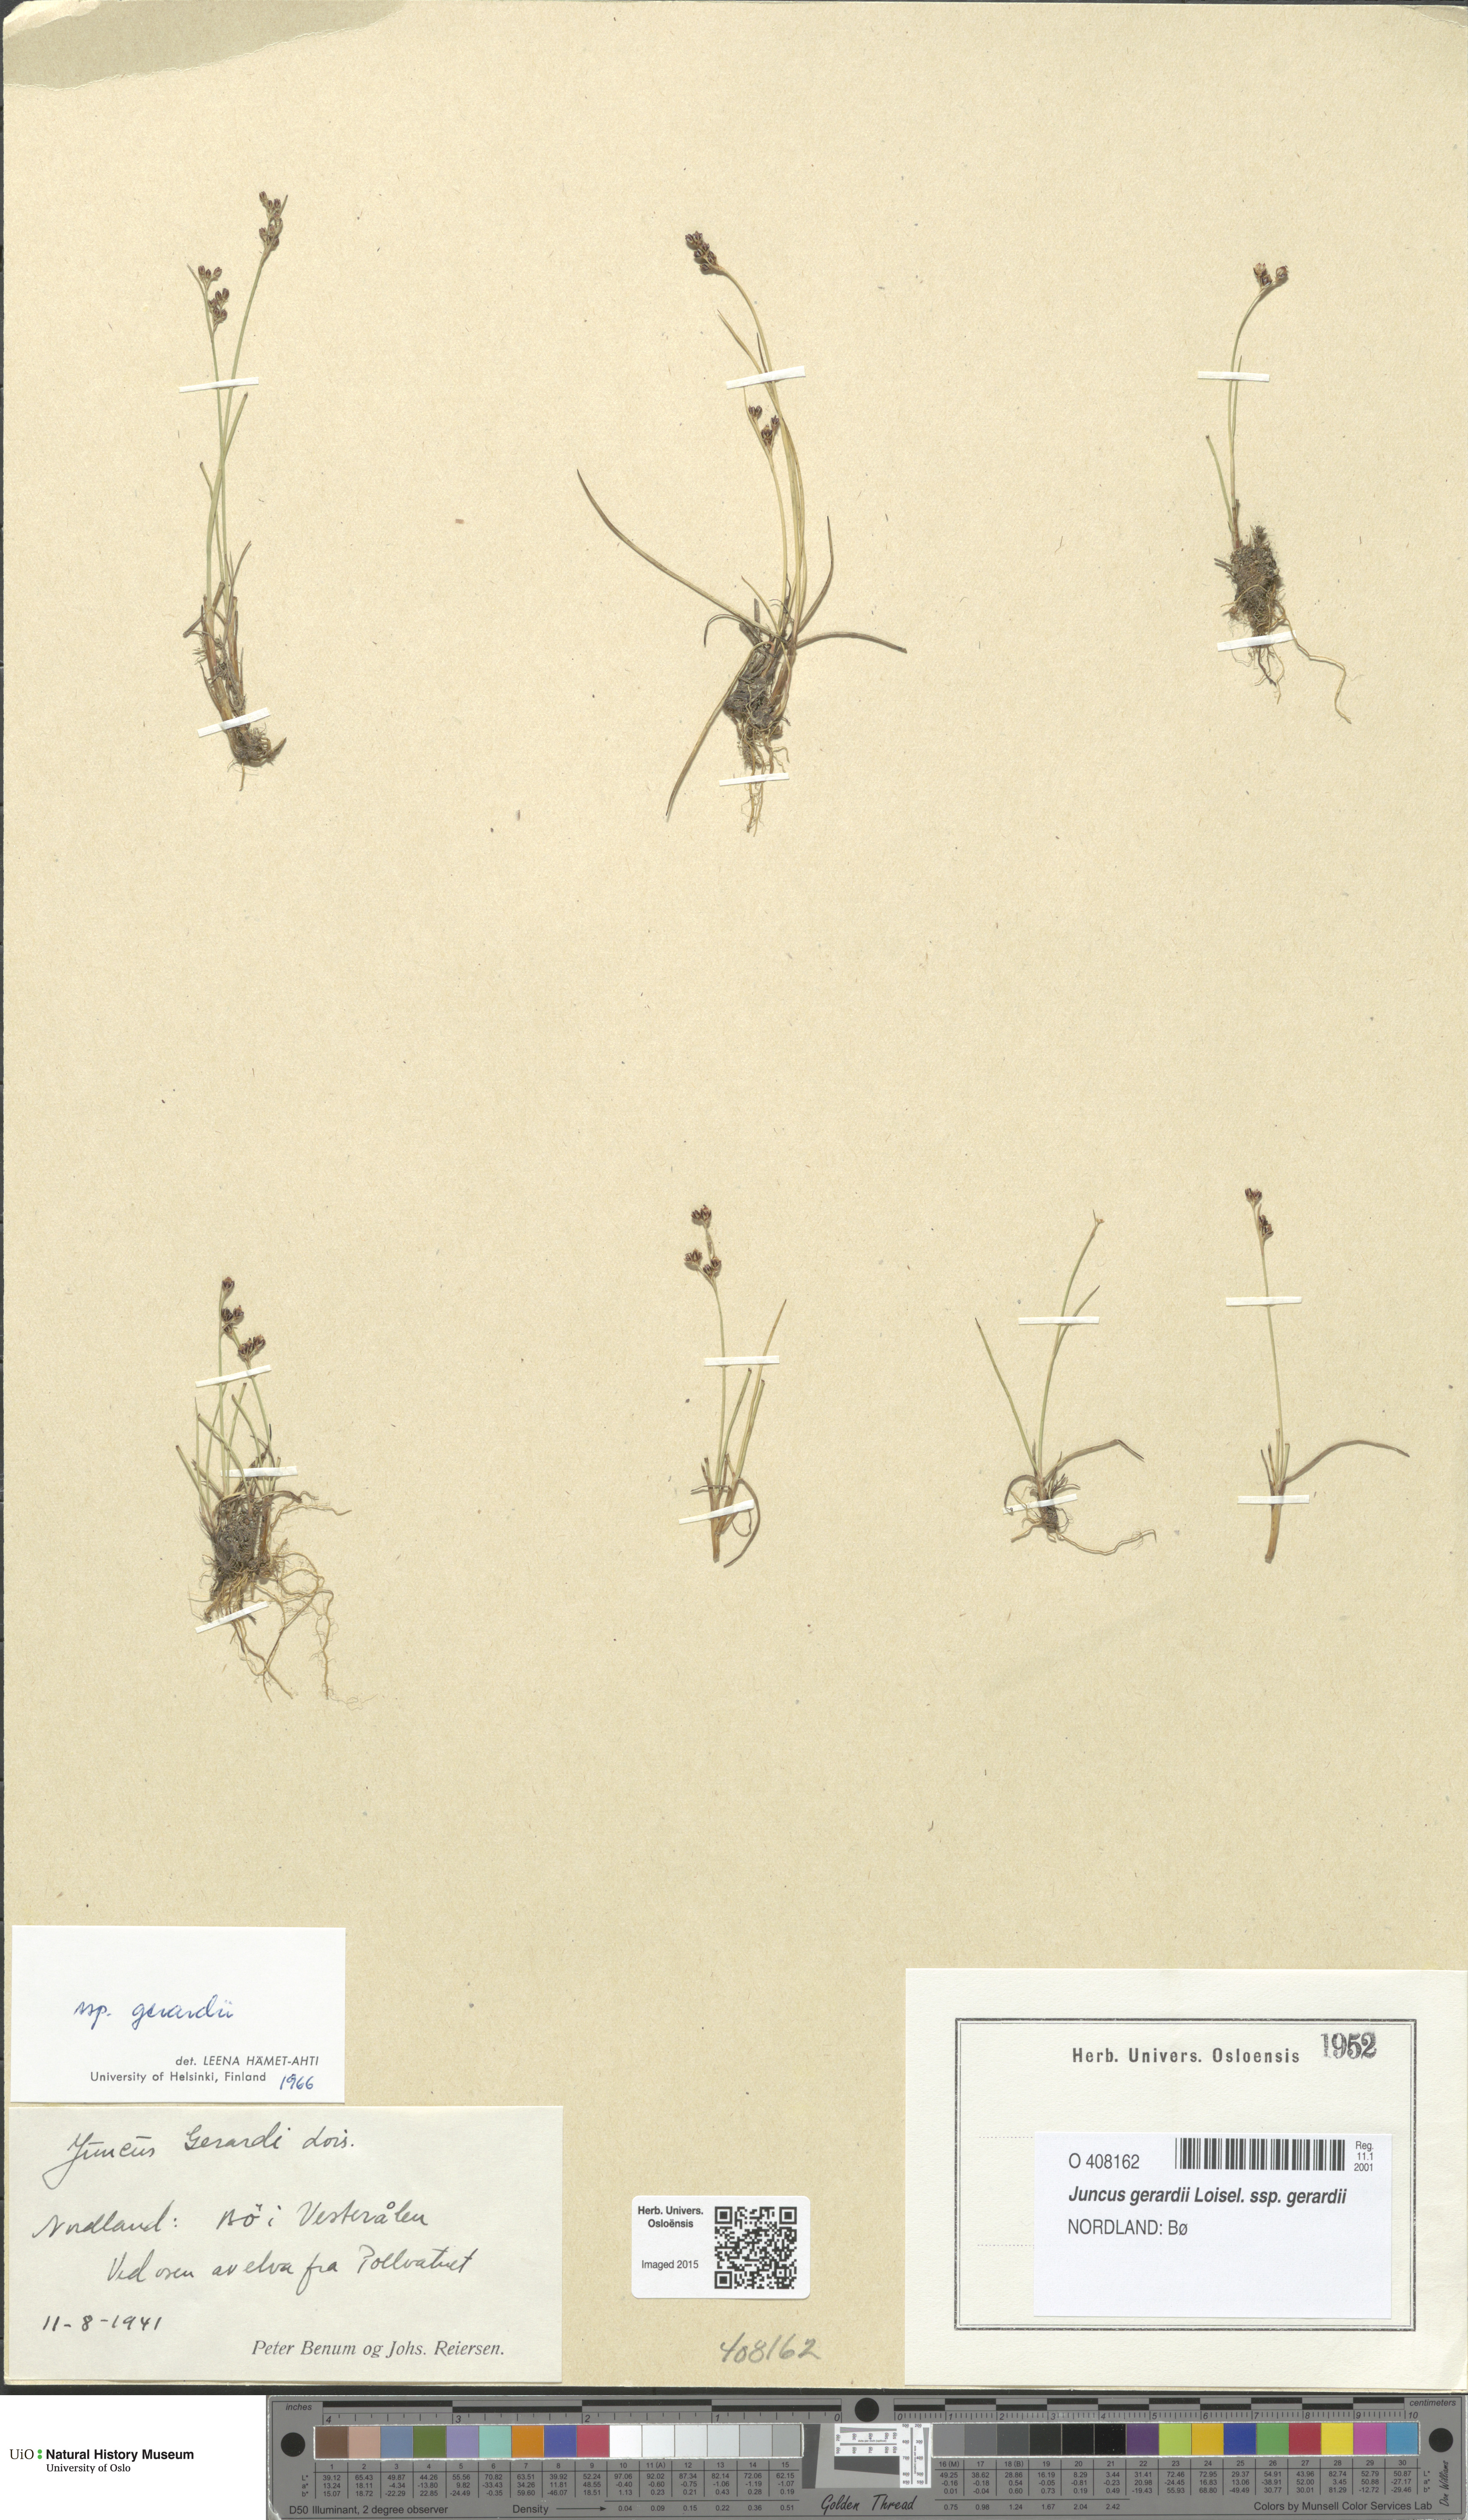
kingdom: Plantae
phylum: Tracheophyta
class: Liliopsida
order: Poales
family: Juncaceae
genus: Juncus
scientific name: Juncus gerardi
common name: Saltmarsh rush
